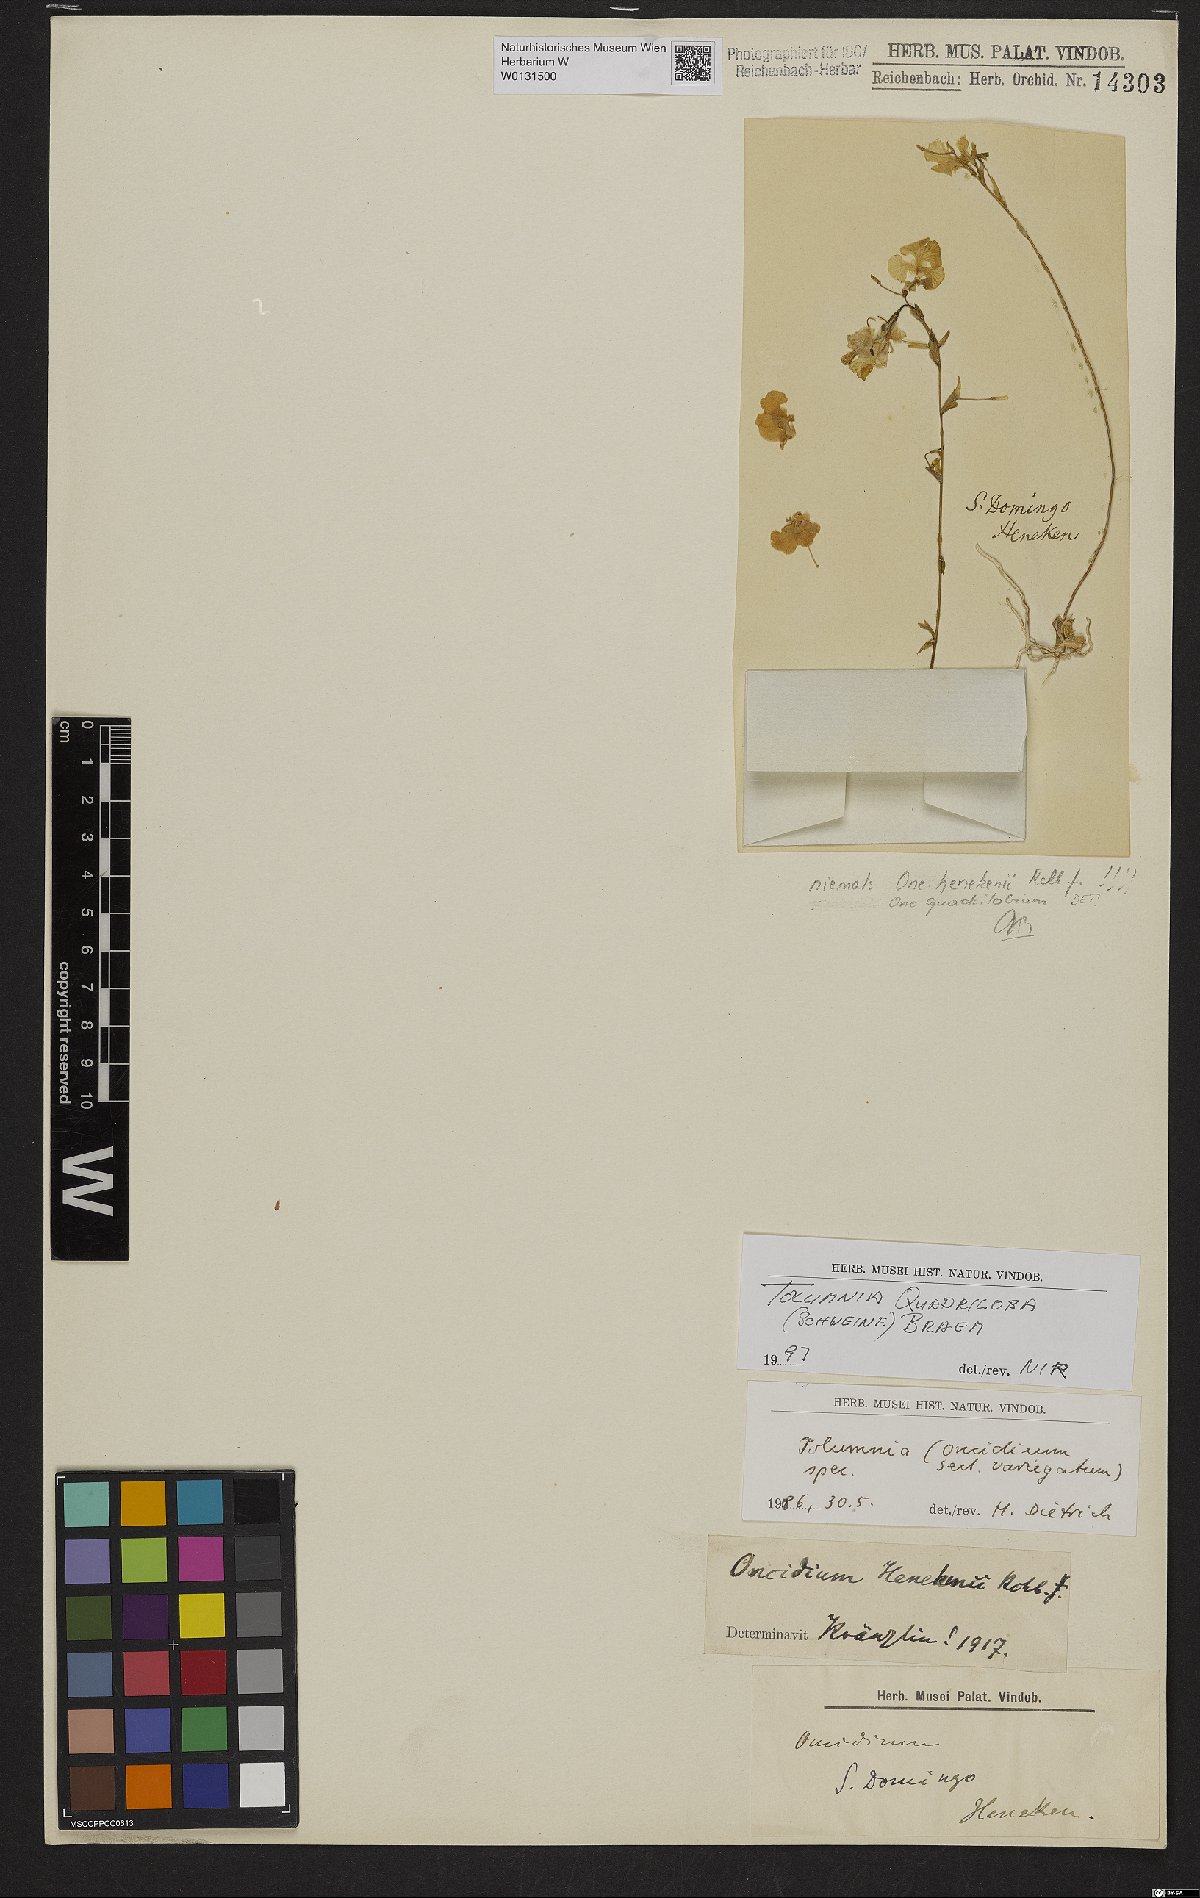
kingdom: Plantae
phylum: Tracheophyta
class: Liliopsida
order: Asparagales
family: Orchidaceae
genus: Tolumnia
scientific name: Tolumnia quadriloba
